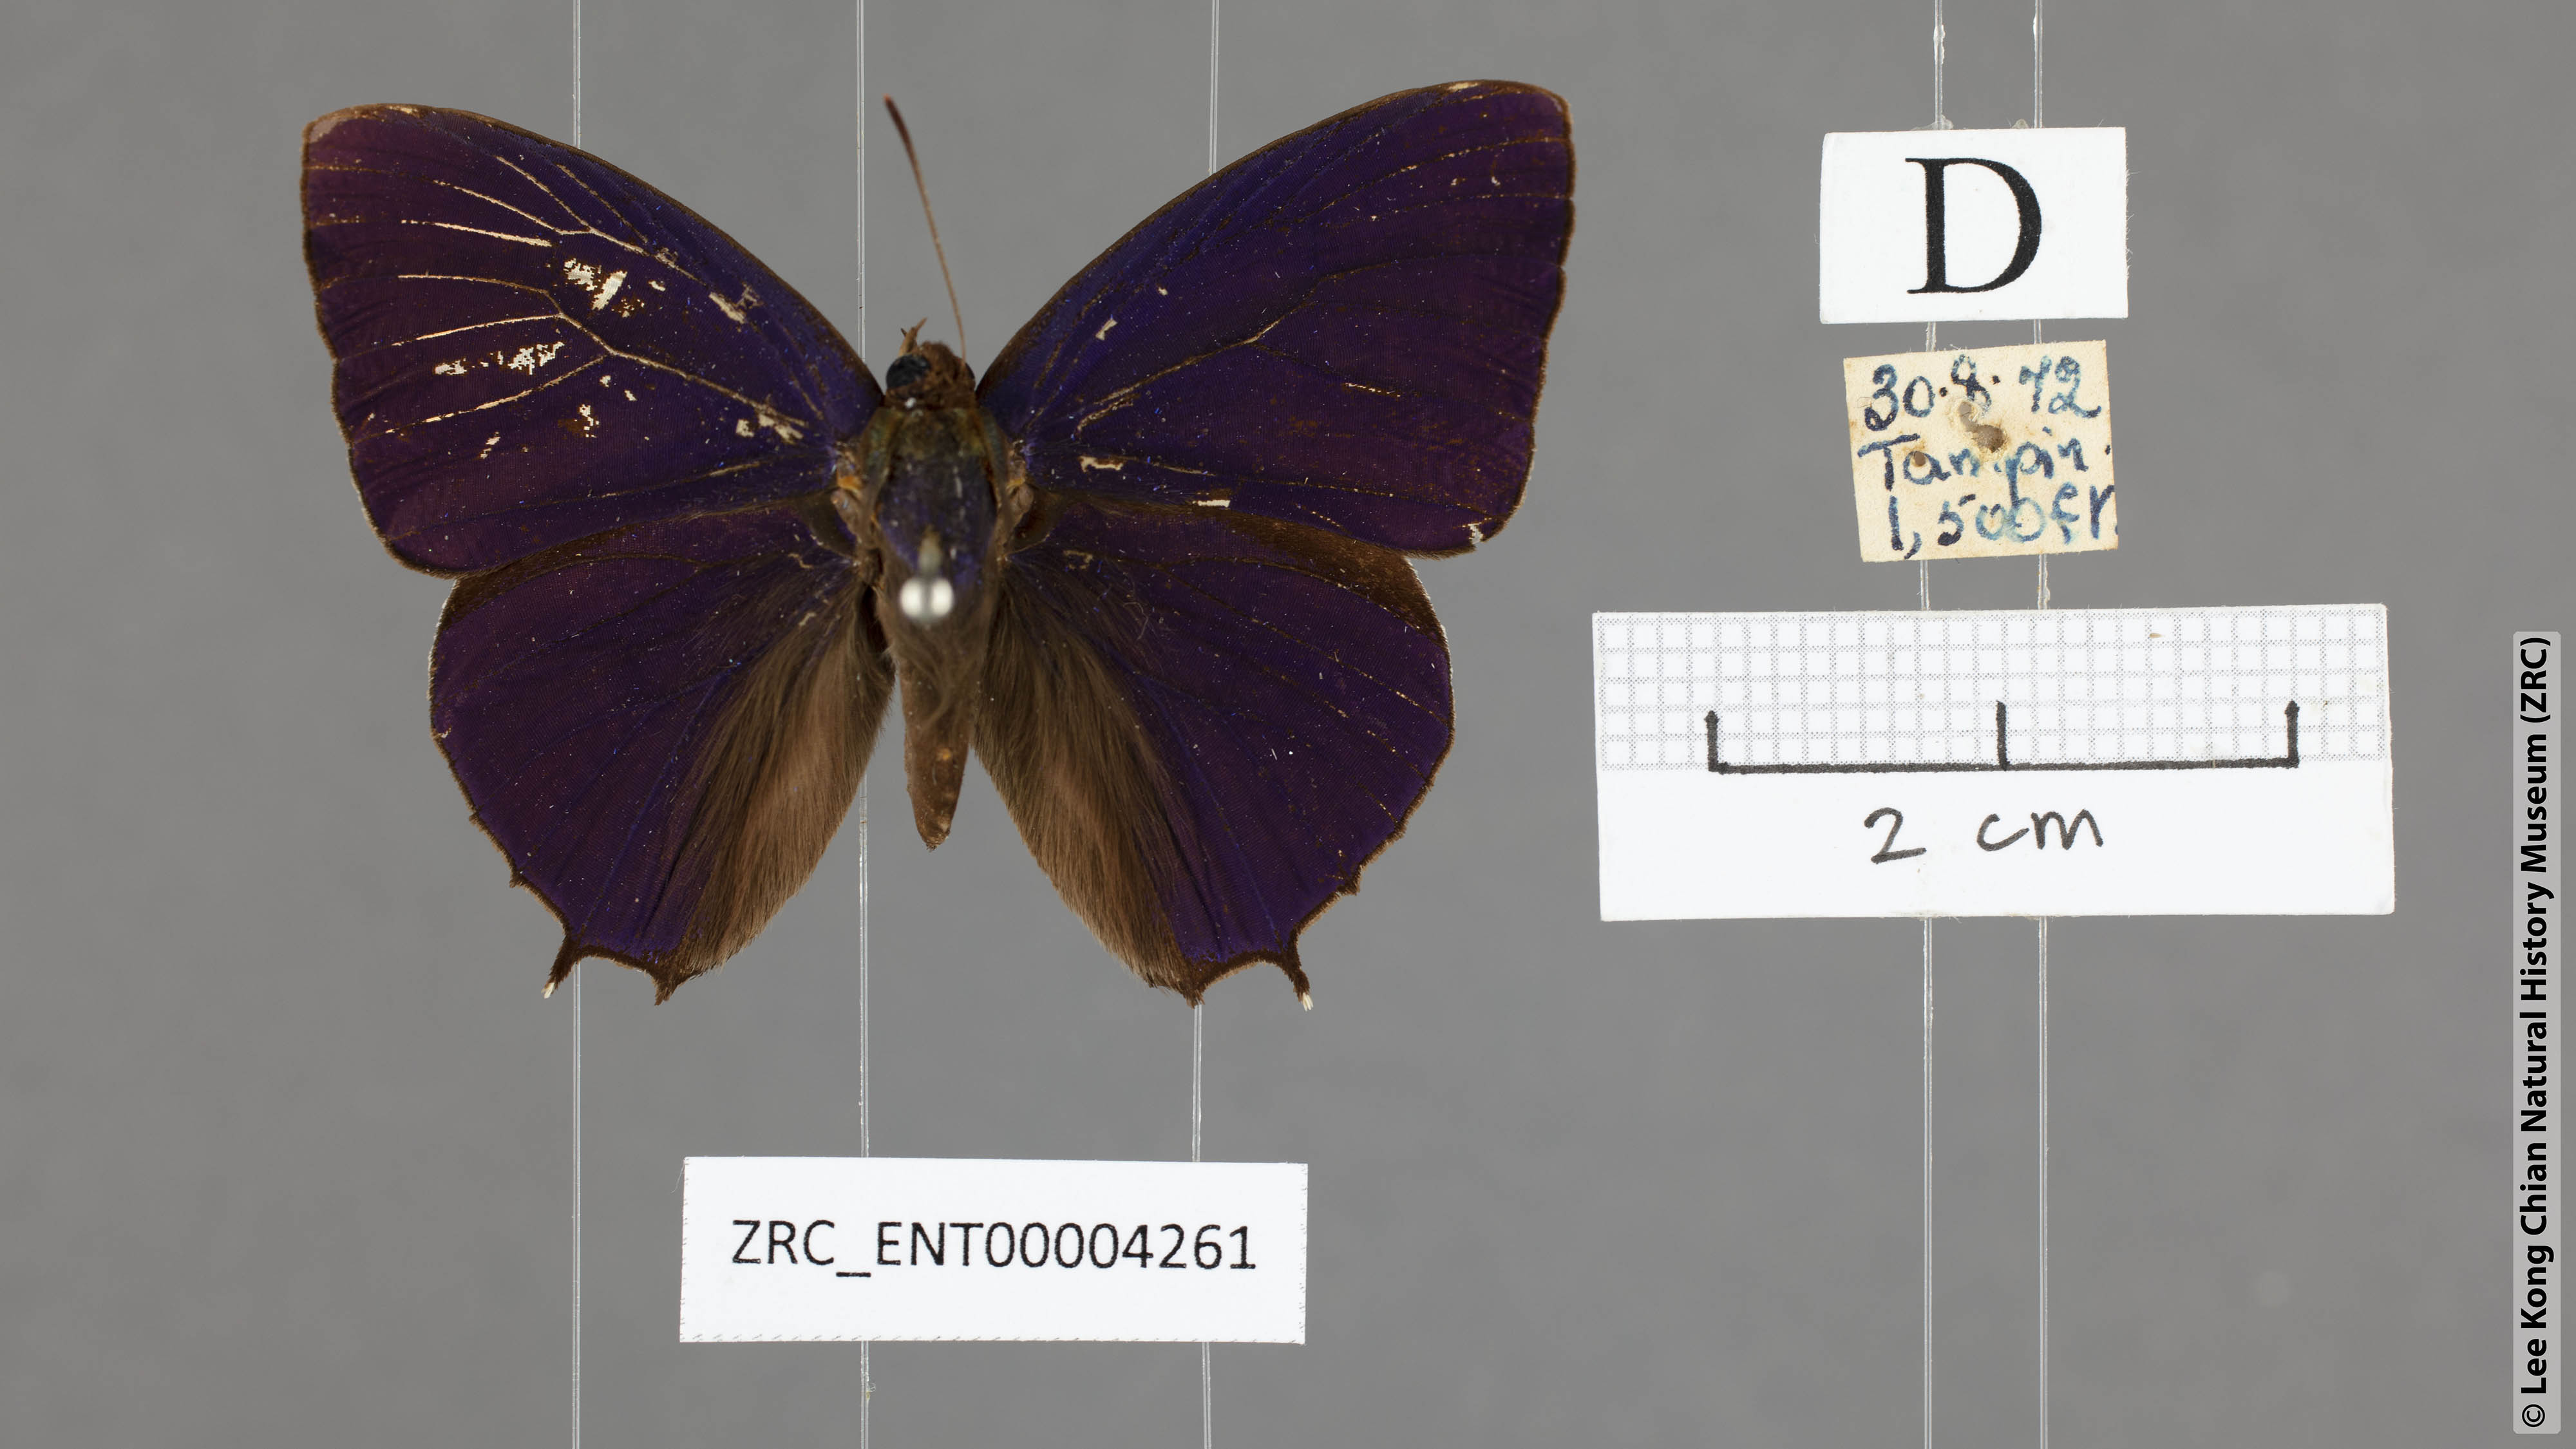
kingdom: Animalia
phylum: Arthropoda
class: Insecta
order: Lepidoptera
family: Lycaenidae
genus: Flos
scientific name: Flos
